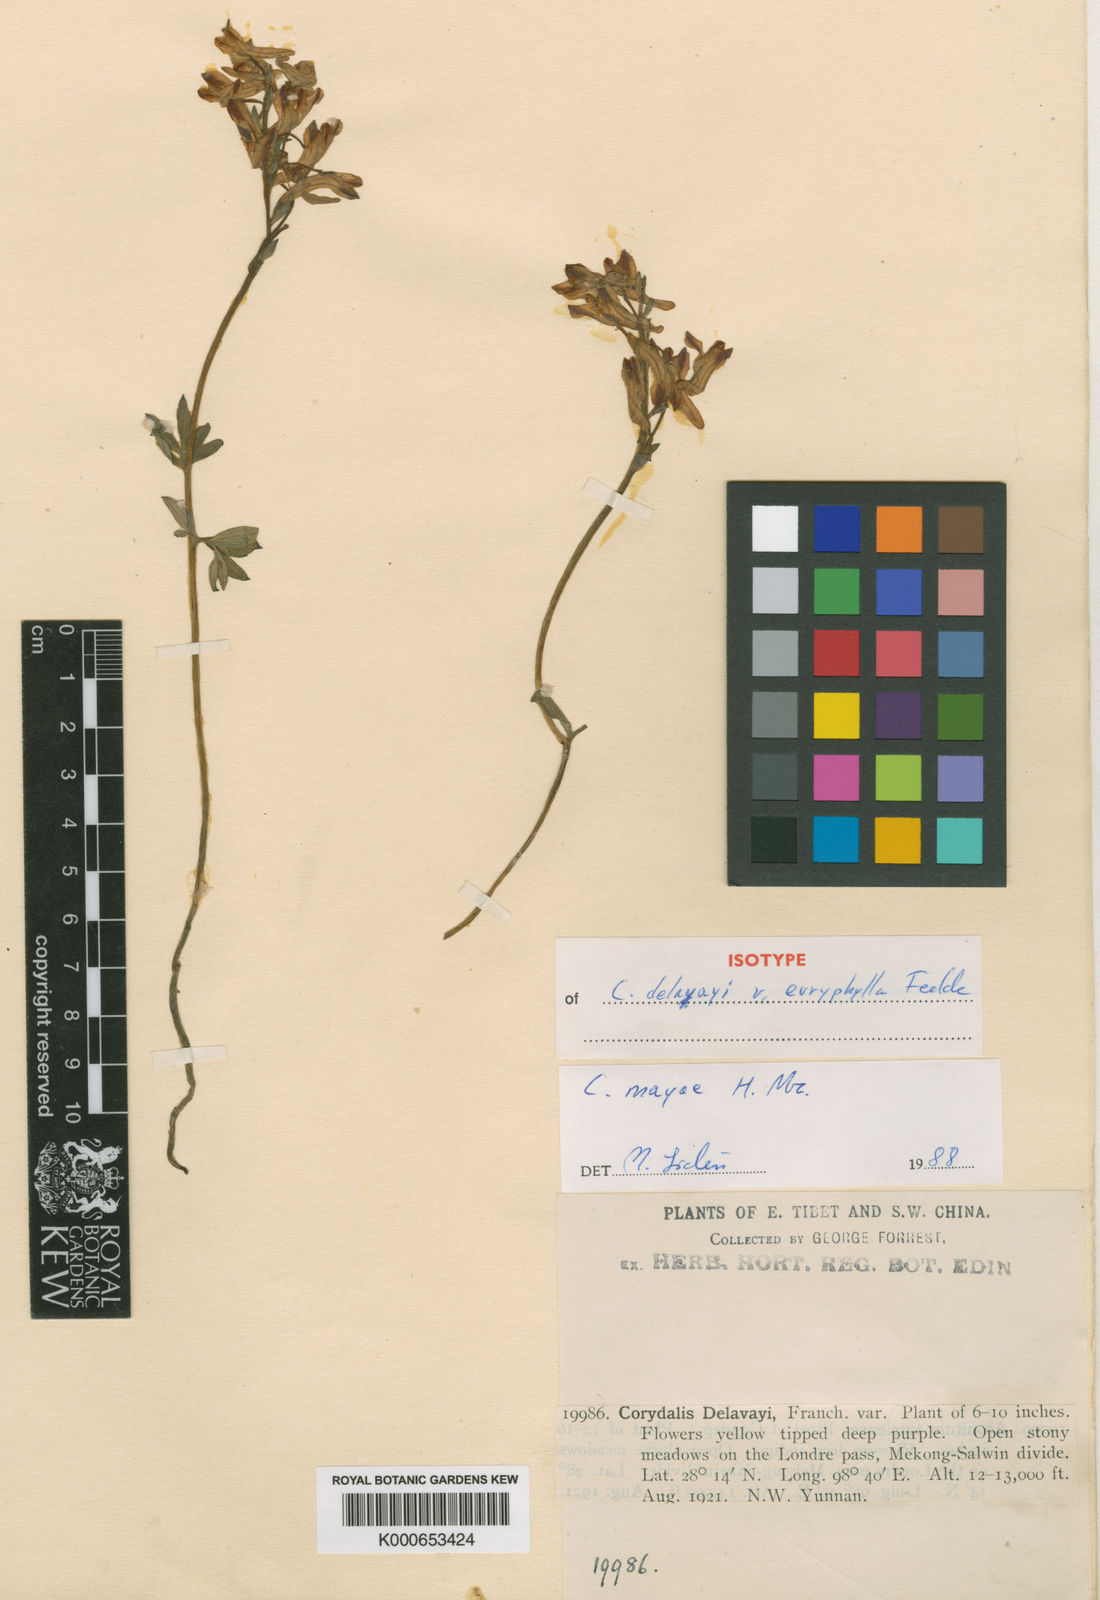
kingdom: Plantae
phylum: Tracheophyta
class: Magnoliopsida
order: Ranunculales
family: Papaveraceae
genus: Corydalis
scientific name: Corydalis mayae
